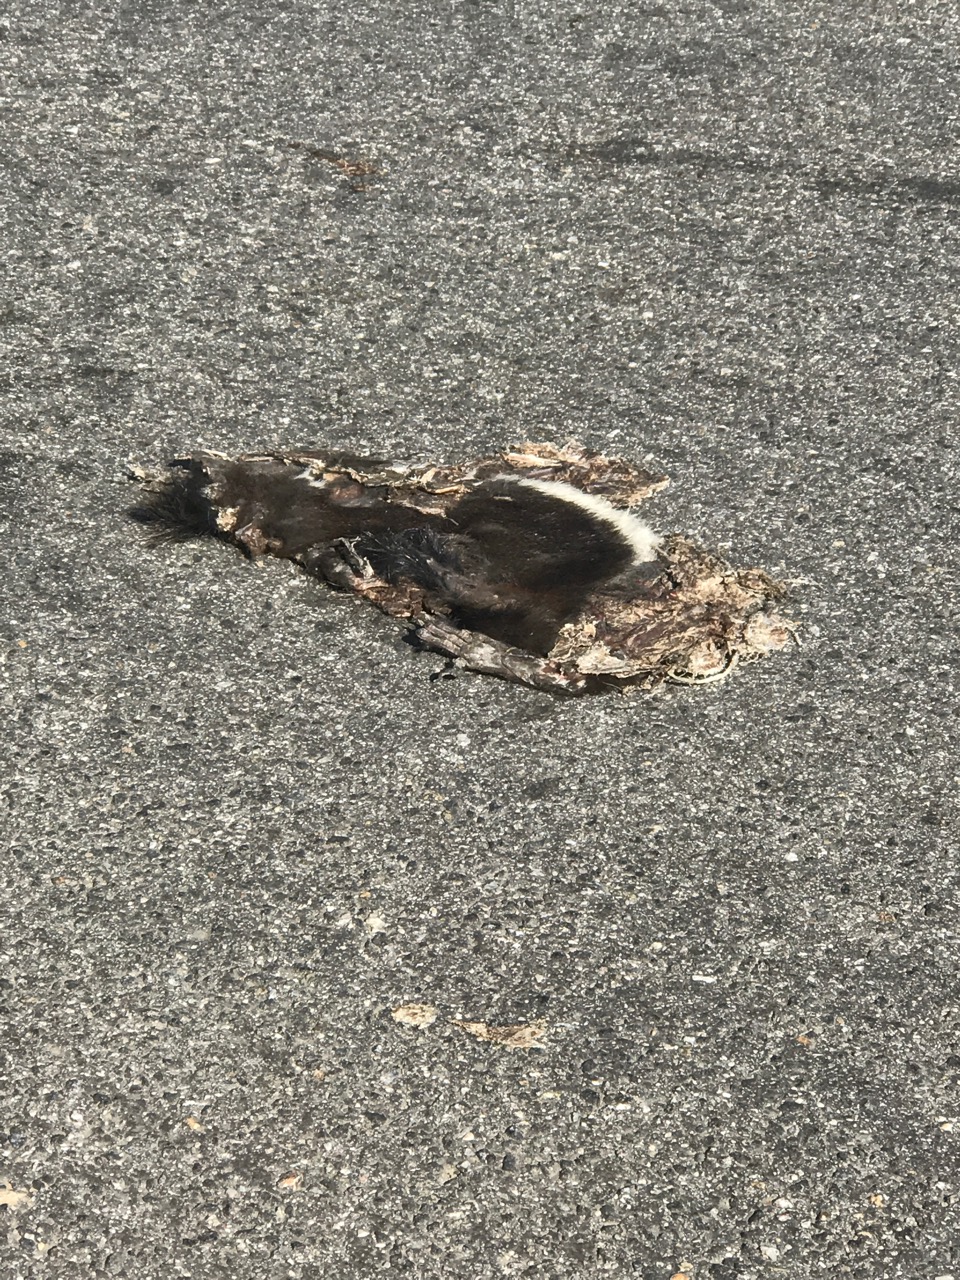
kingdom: Animalia
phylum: Chordata
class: Mammalia
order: Rodentia
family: Sciuridae
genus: Sciurus
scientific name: Sciurus vulgaris
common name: Eurasian red squirrel
